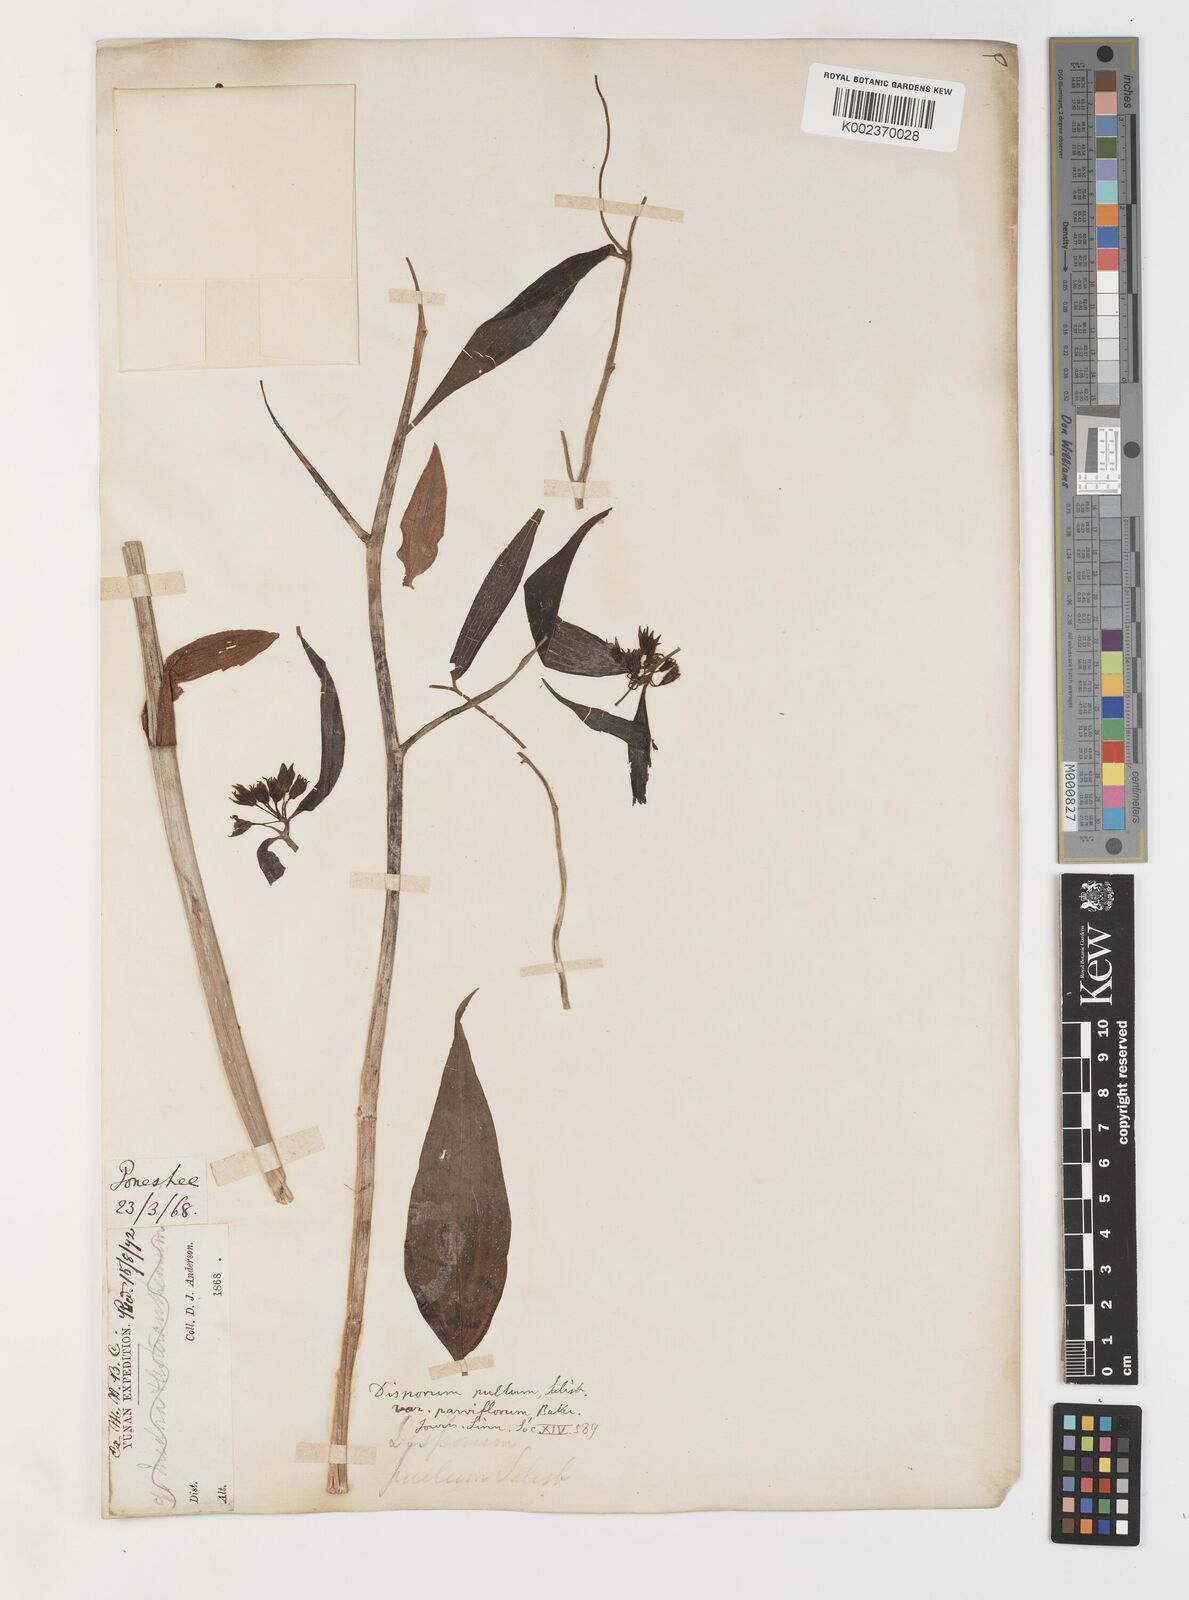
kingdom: Plantae
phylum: Tracheophyta
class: Liliopsida
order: Liliales
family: Colchicaceae
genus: Disporum
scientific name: Disporum cantoniense
